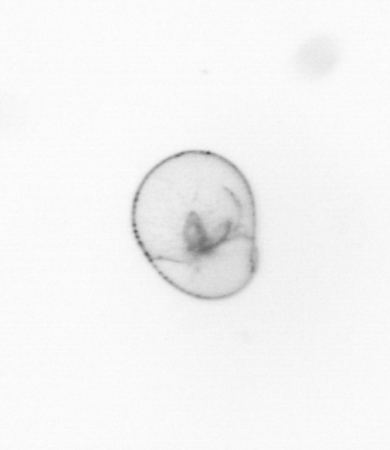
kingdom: Chromista
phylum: Myzozoa
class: Dinophyceae
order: Noctilucales
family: Noctilucaceae
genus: Noctiluca
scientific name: Noctiluca scintillans
